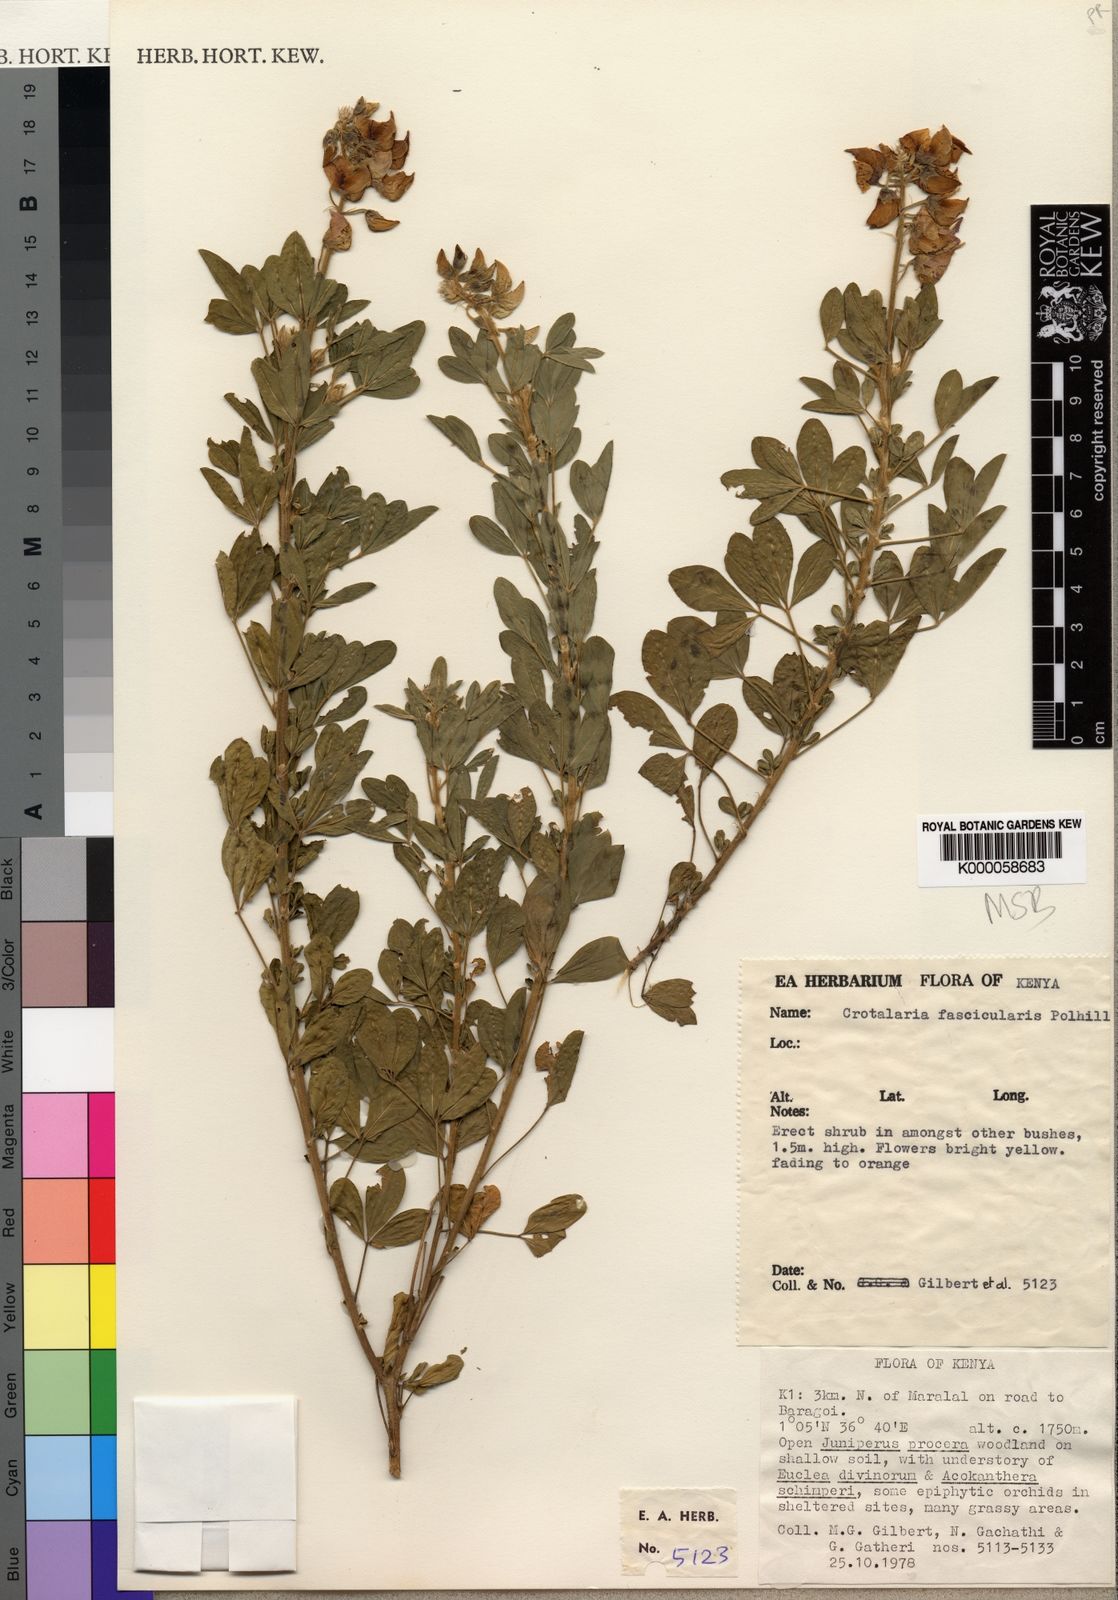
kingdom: Plantae
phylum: Tracheophyta
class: Magnoliopsida
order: Fabales
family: Fabaceae
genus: Crotalaria
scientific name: Crotalaria fascicularis
